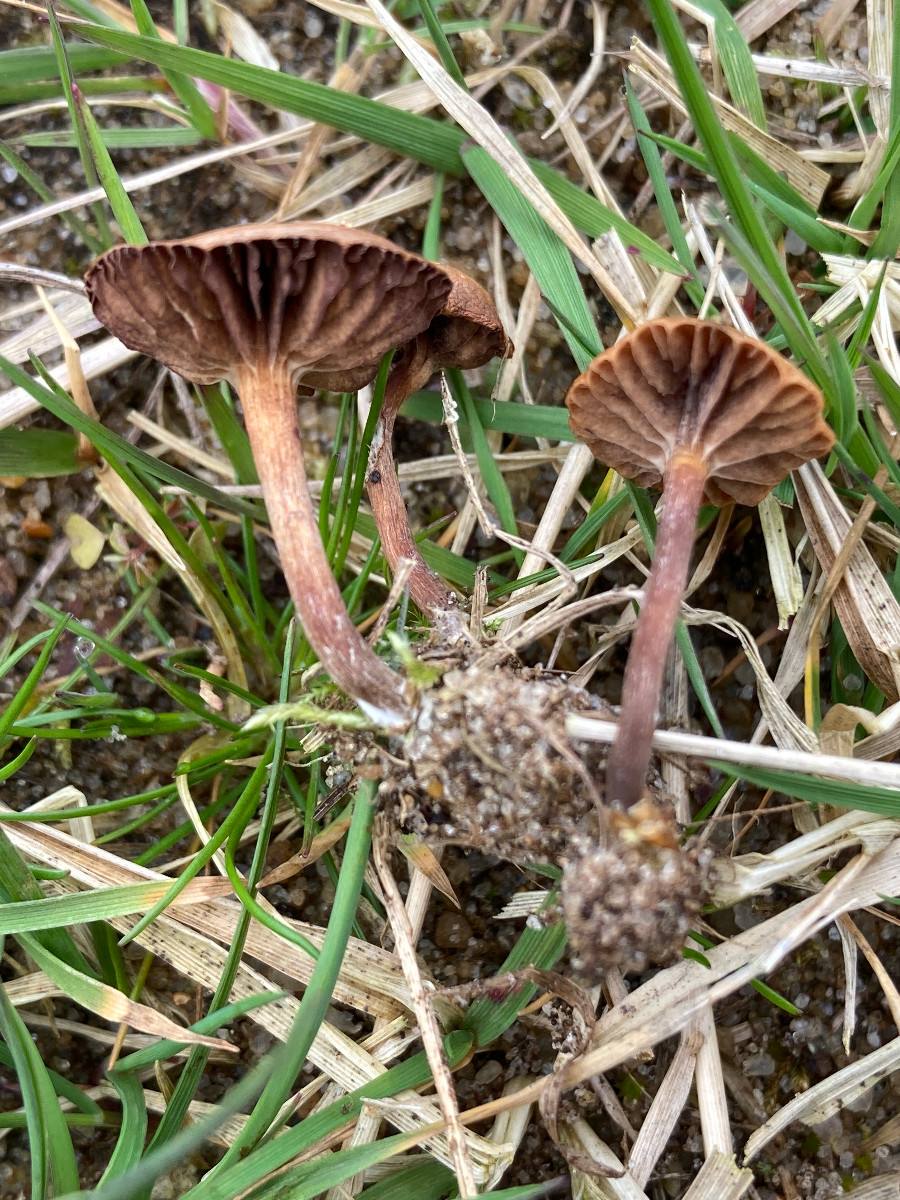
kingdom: Fungi
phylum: Basidiomycota
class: Agaricomycetes
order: Agaricales
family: Strophariaceae
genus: Deconica
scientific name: Deconica
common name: stråhat
